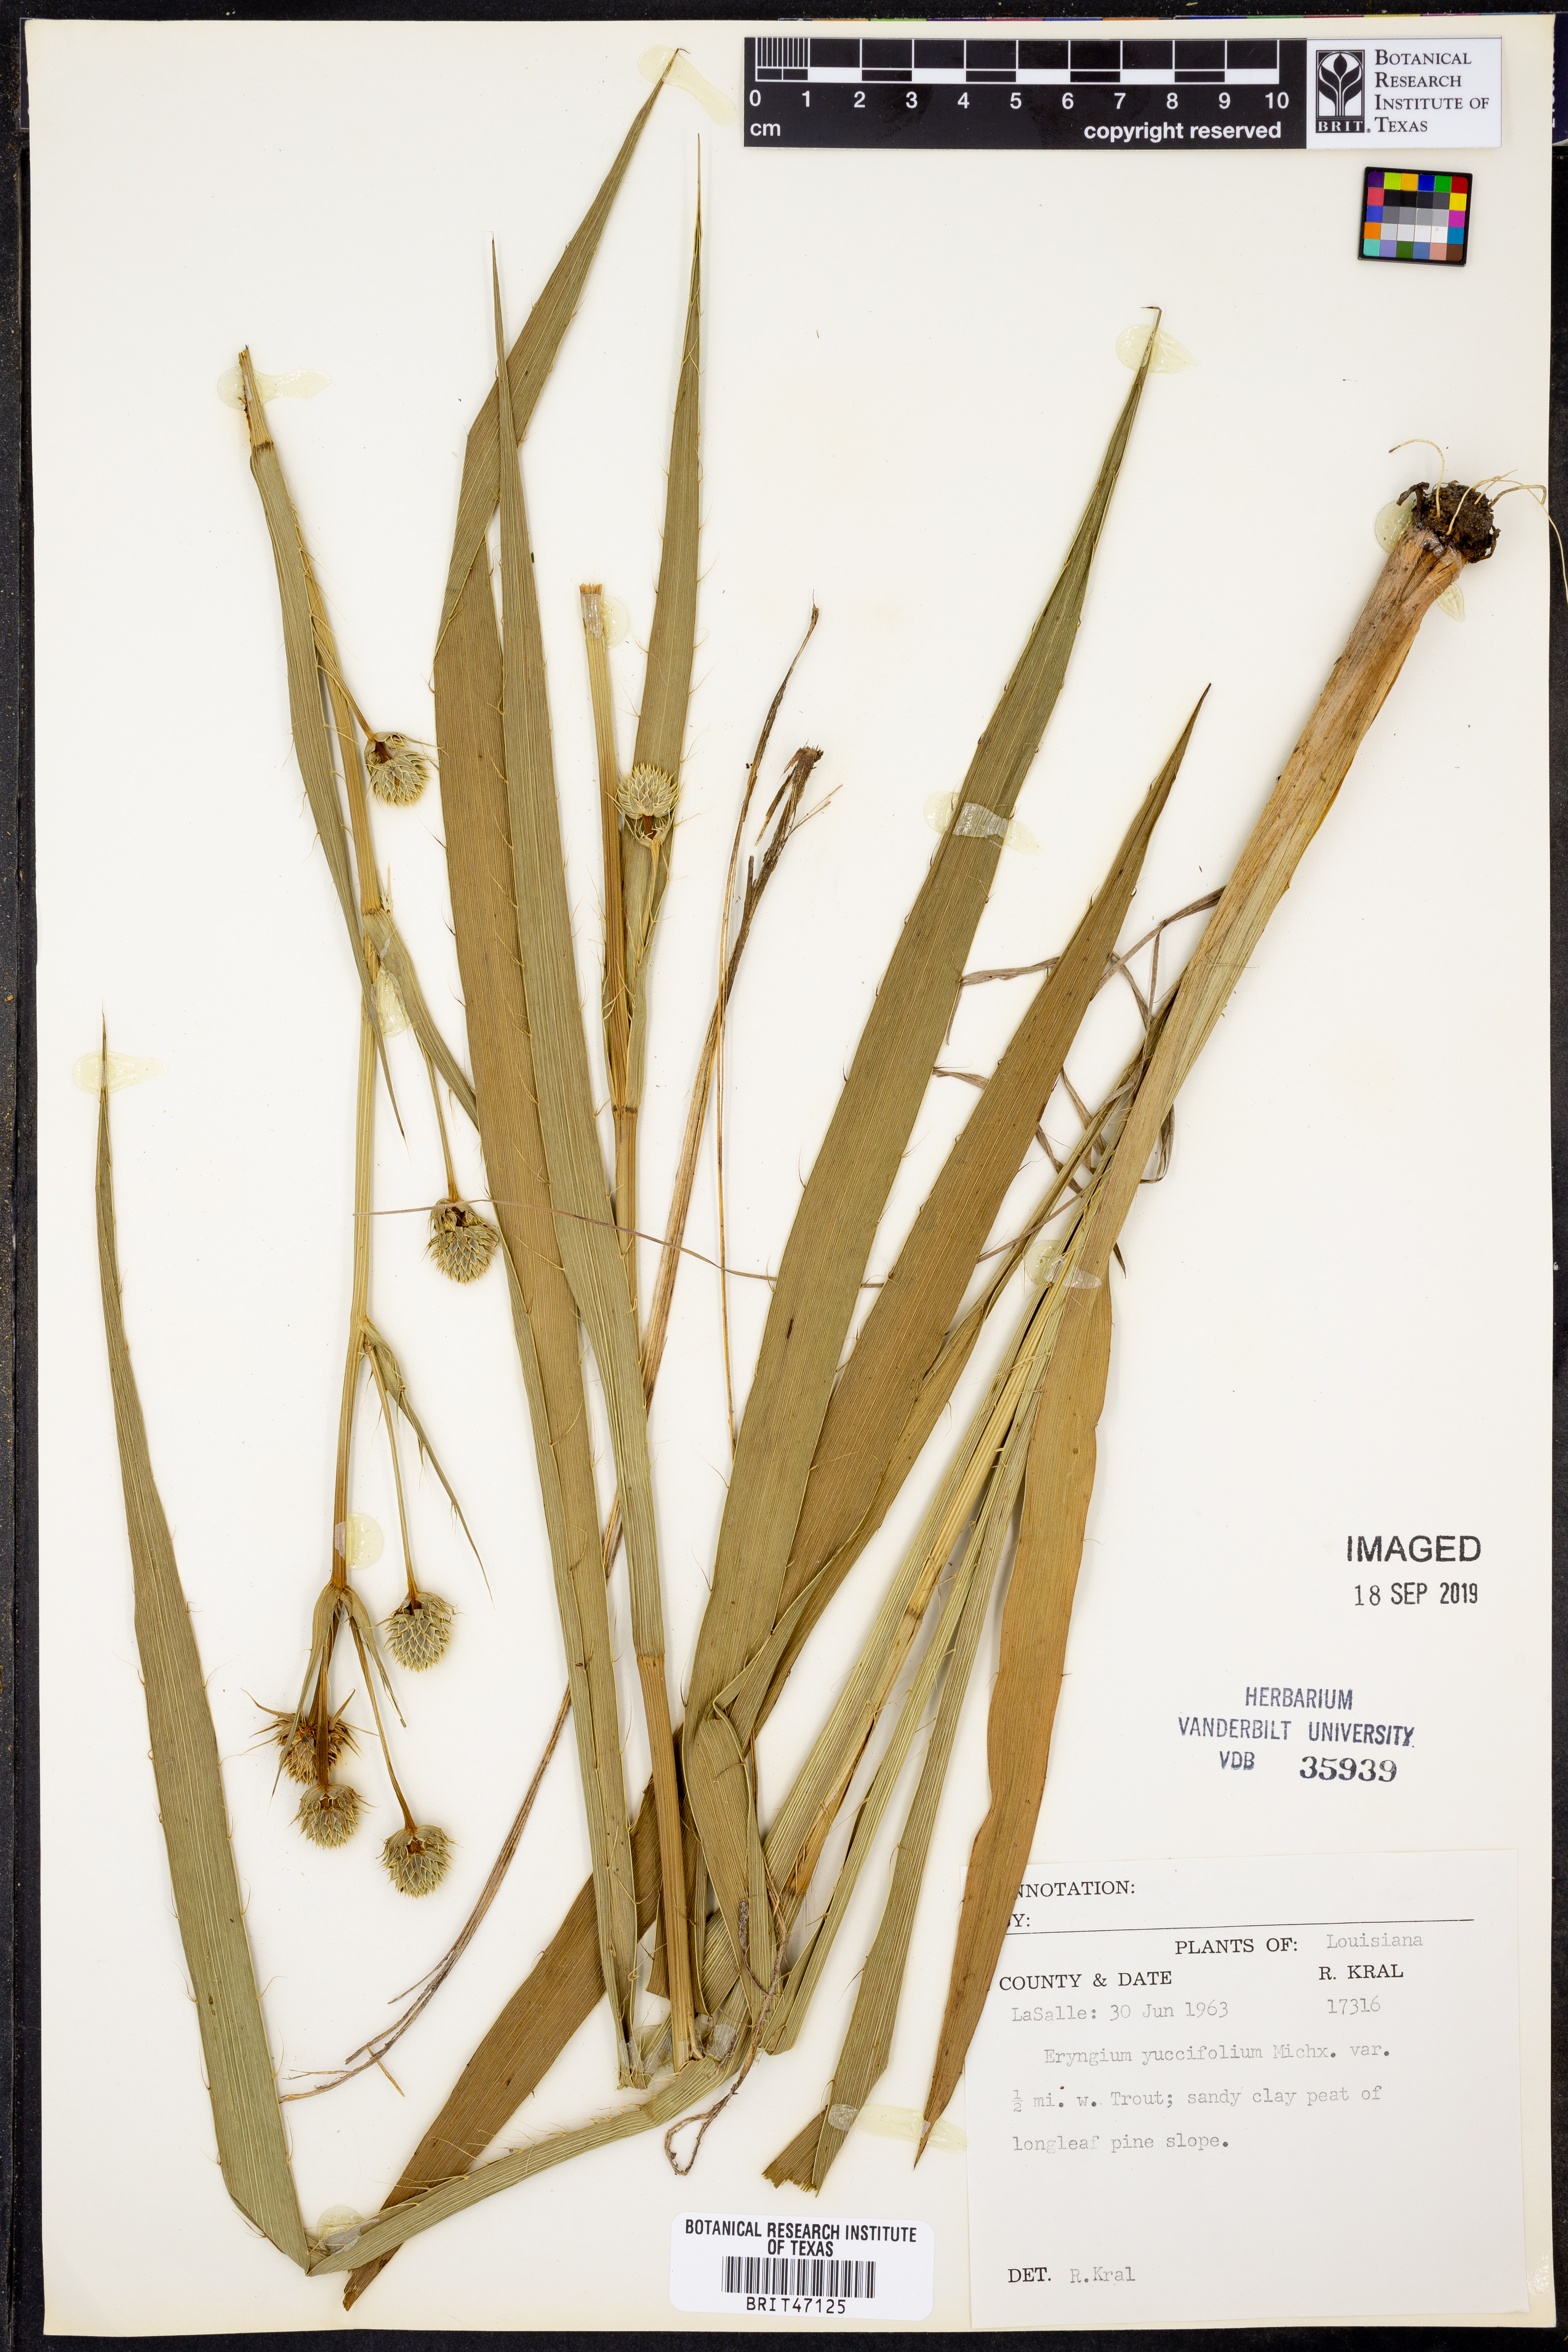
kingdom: Plantae
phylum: Tracheophyta
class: Magnoliopsida
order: Apiales
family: Apiaceae
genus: Eryngium
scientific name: Eryngium yuccifolium
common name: Button eryngo
